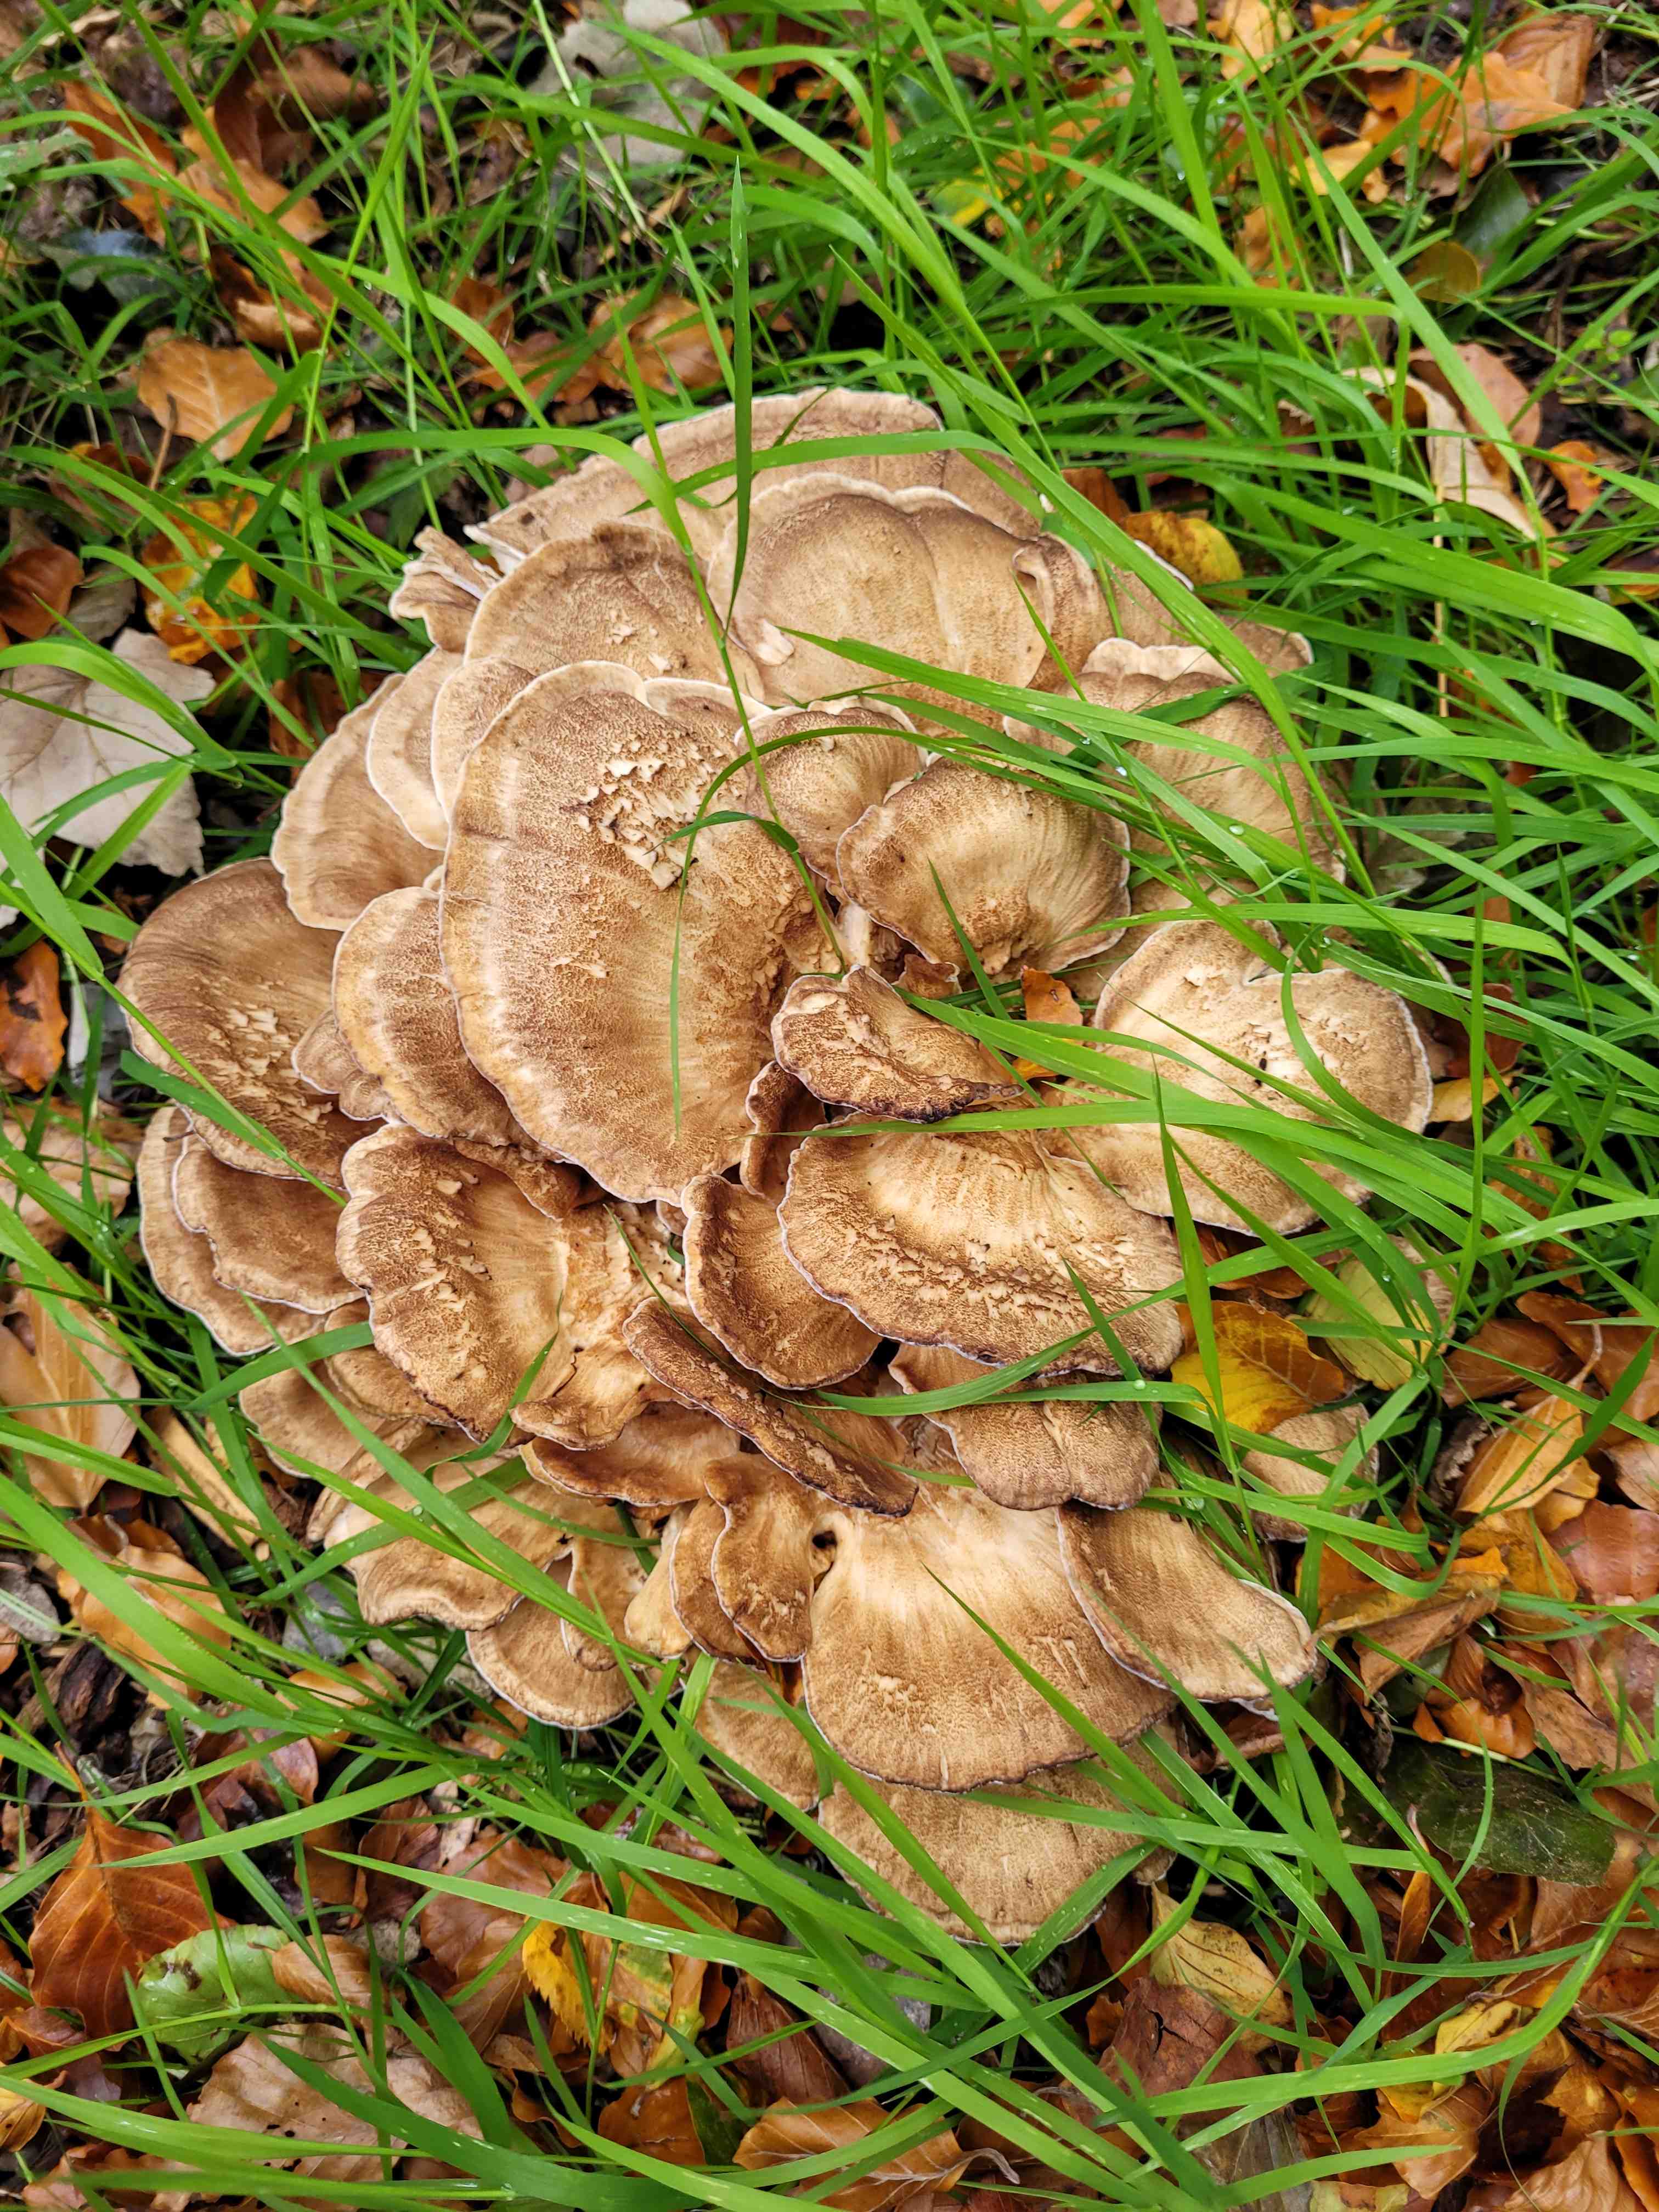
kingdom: Fungi
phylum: Basidiomycota
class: Agaricomycetes
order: Polyporales
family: Meripilaceae
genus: Meripilus
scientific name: Meripilus giganteus
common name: kæmpeporesvamp
